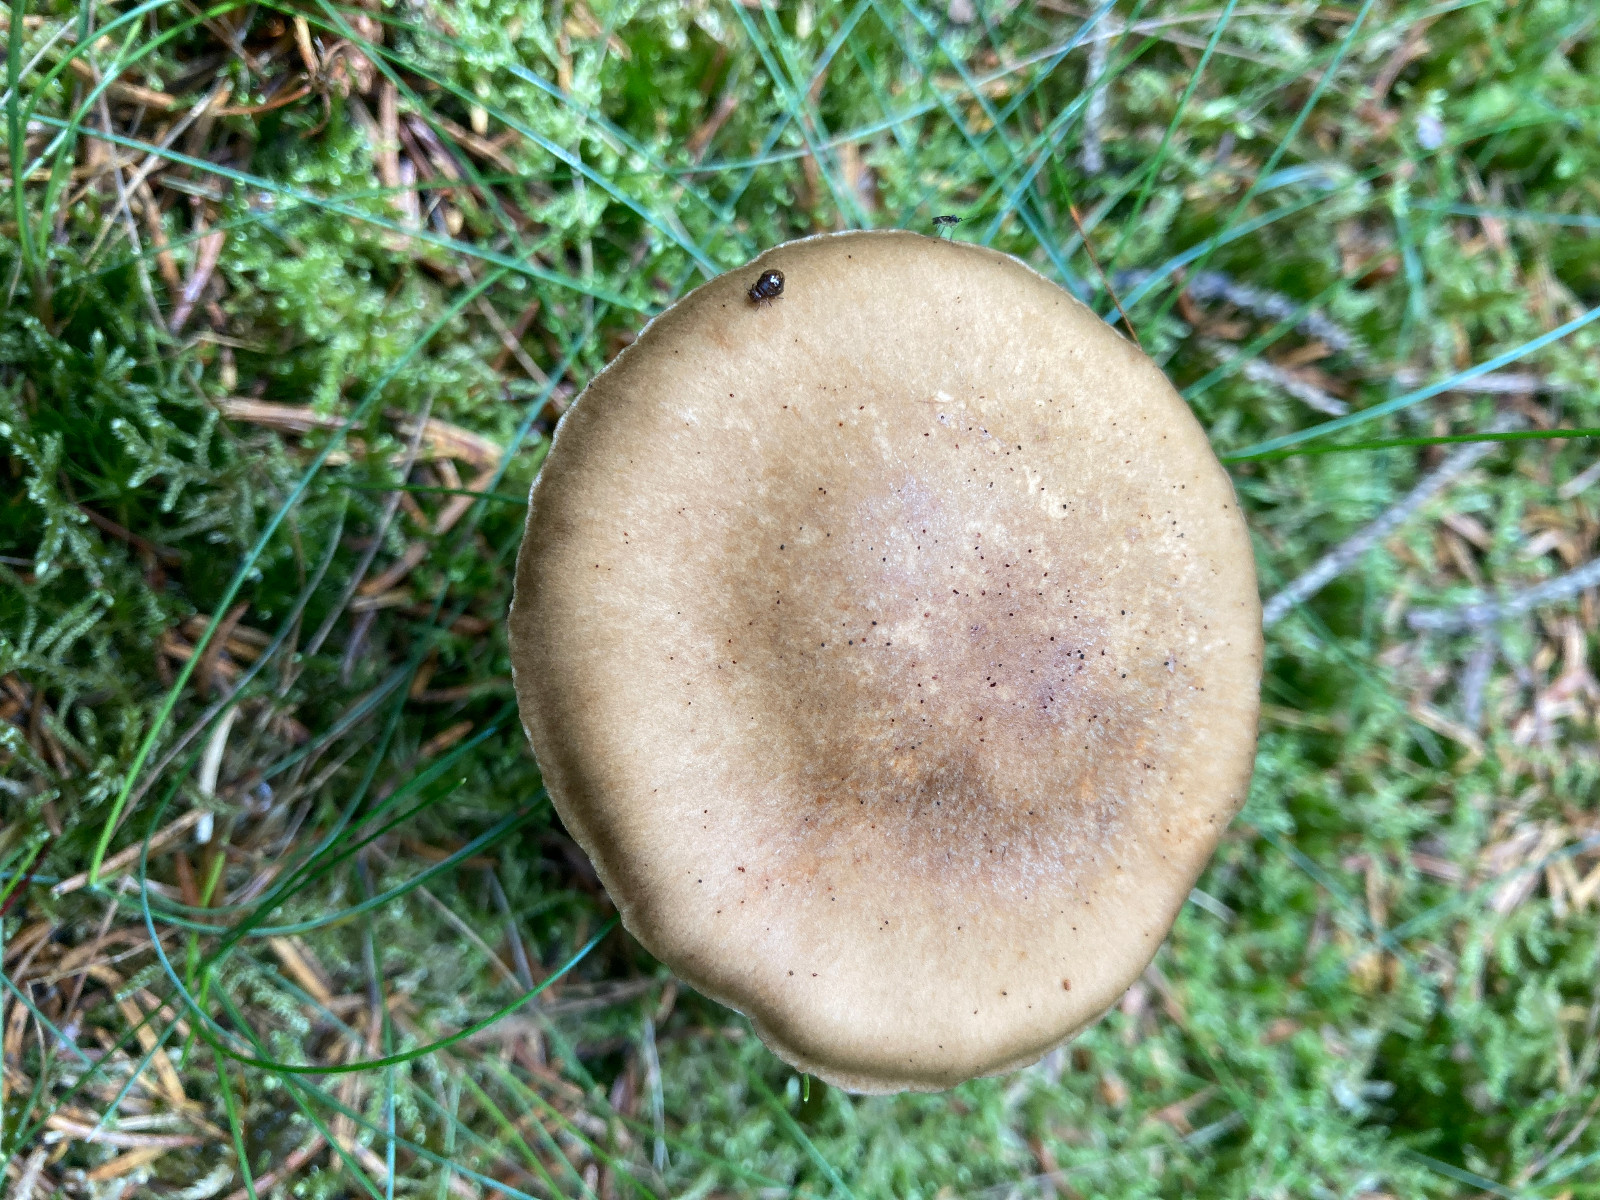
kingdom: Fungi
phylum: Basidiomycota
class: Agaricomycetes
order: Agaricales
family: Cortinariaceae
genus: Thaxterogaster
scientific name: Thaxterogaster scaurus
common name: sump-slørhat
